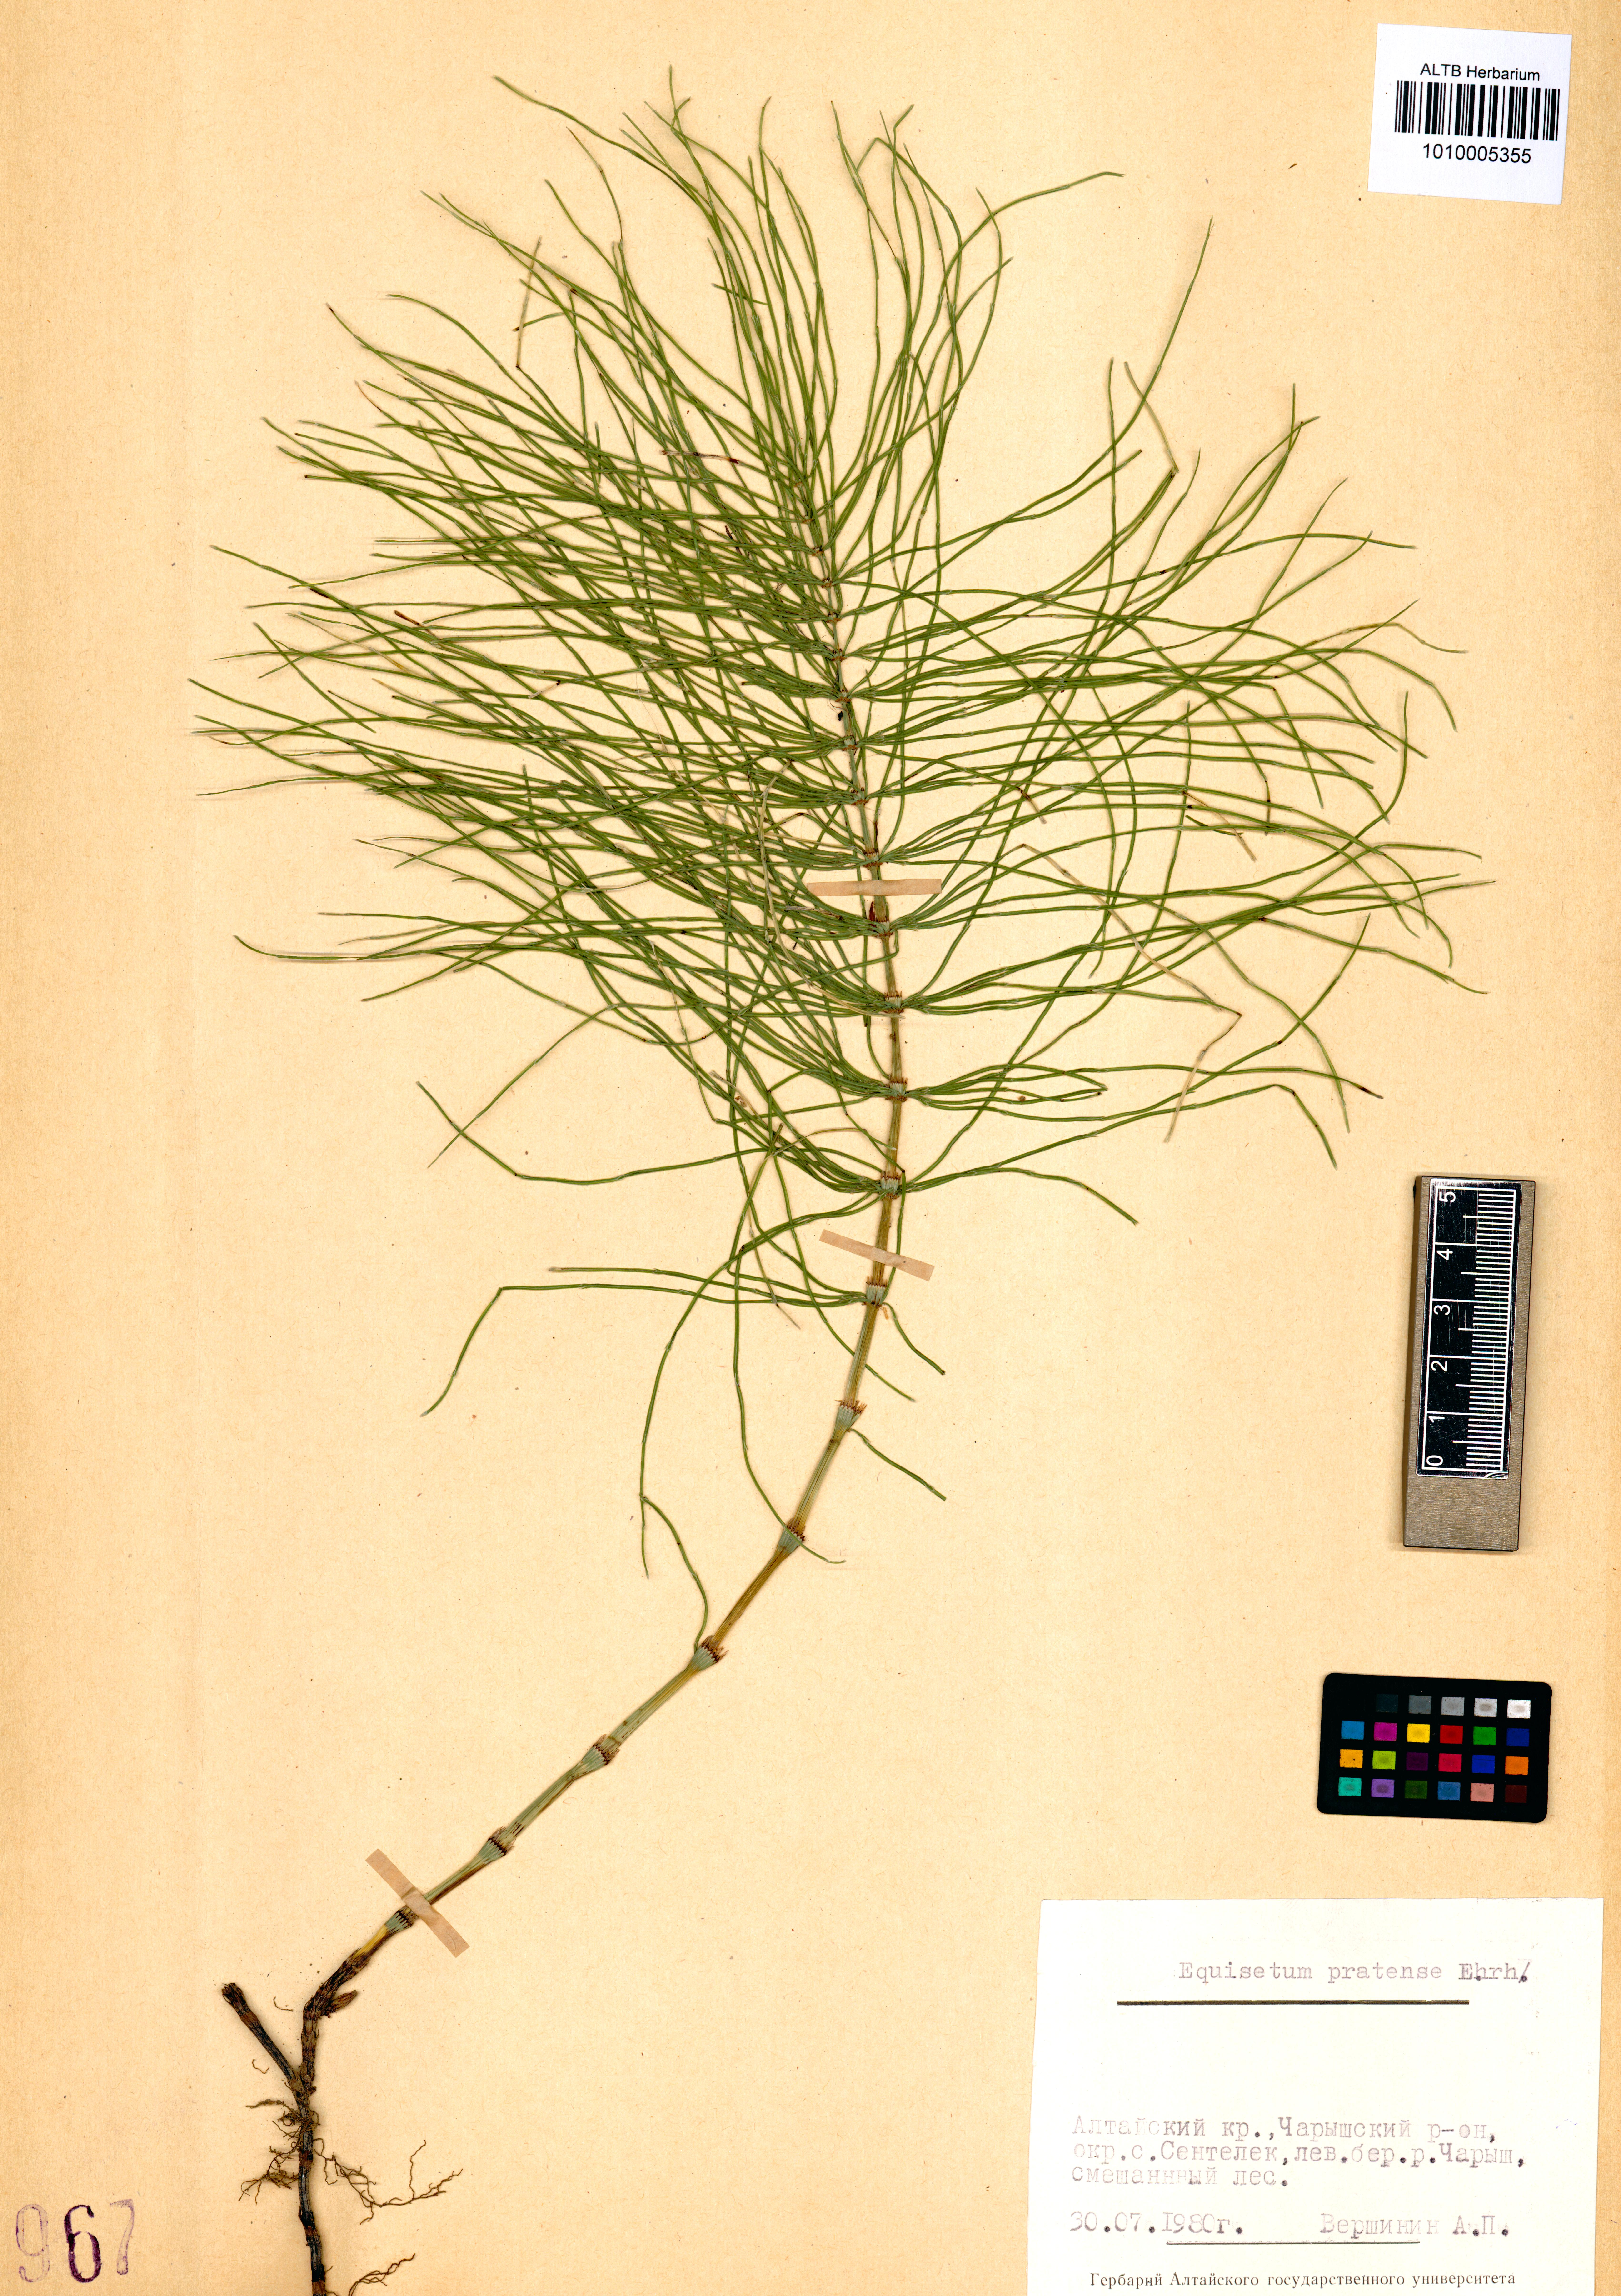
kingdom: Plantae
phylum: Tracheophyta
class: Polypodiopsida
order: Equisetales
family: Equisetaceae
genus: Equisetum
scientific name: Equisetum pratense
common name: Meadow horsetail
